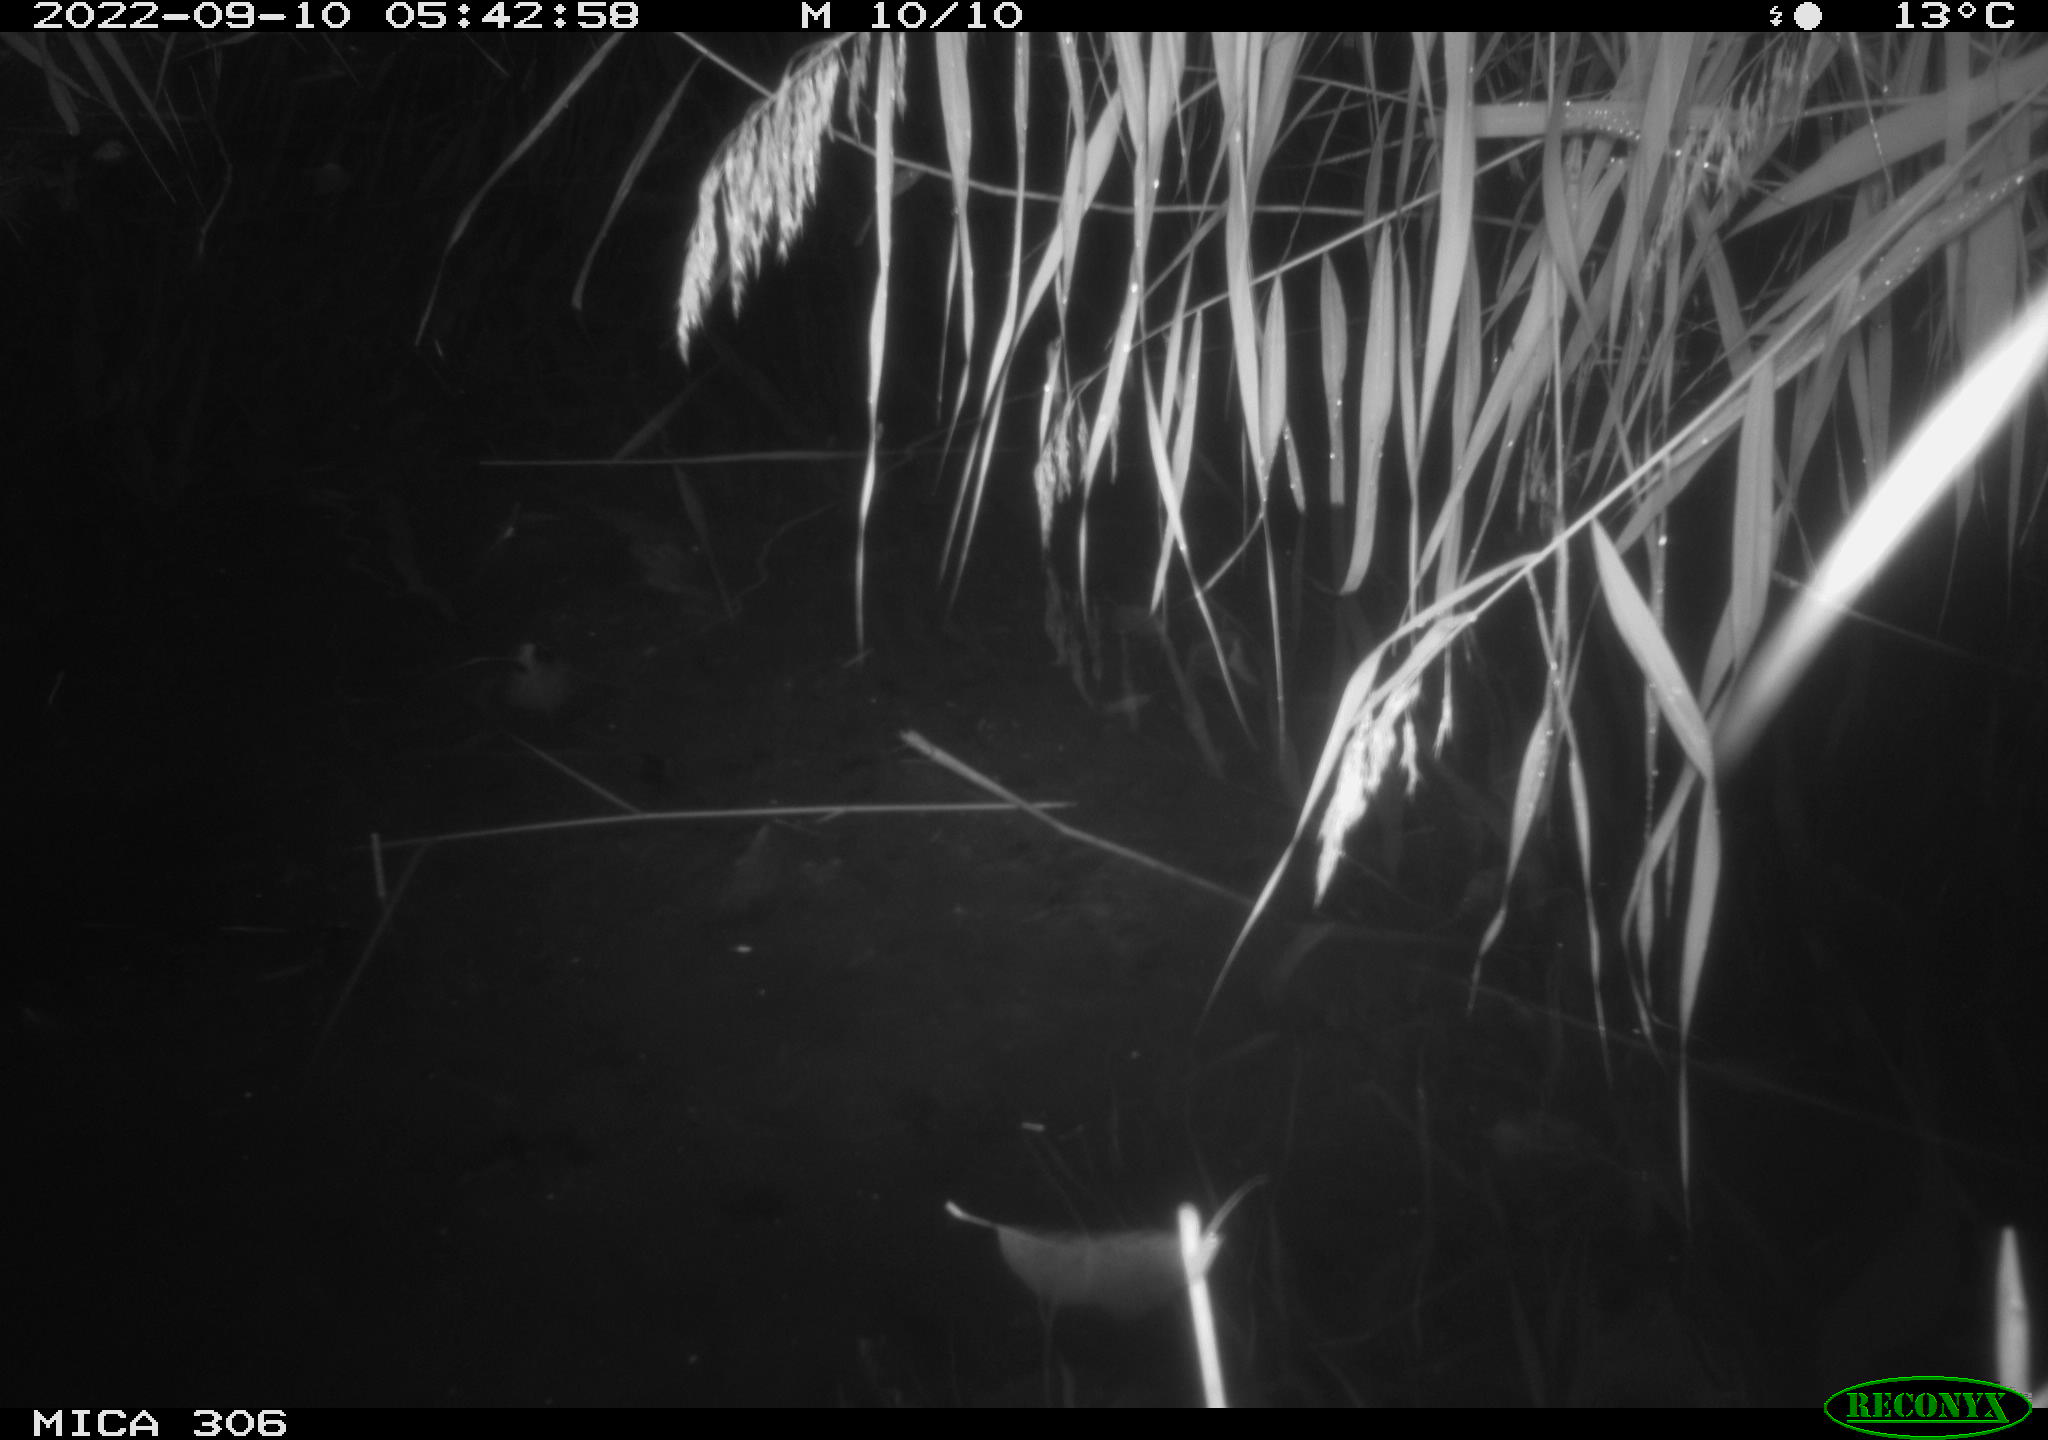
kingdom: Animalia
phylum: Chordata
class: Mammalia
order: Rodentia
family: Muridae
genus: Rattus
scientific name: Rattus norvegicus
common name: Brown rat
